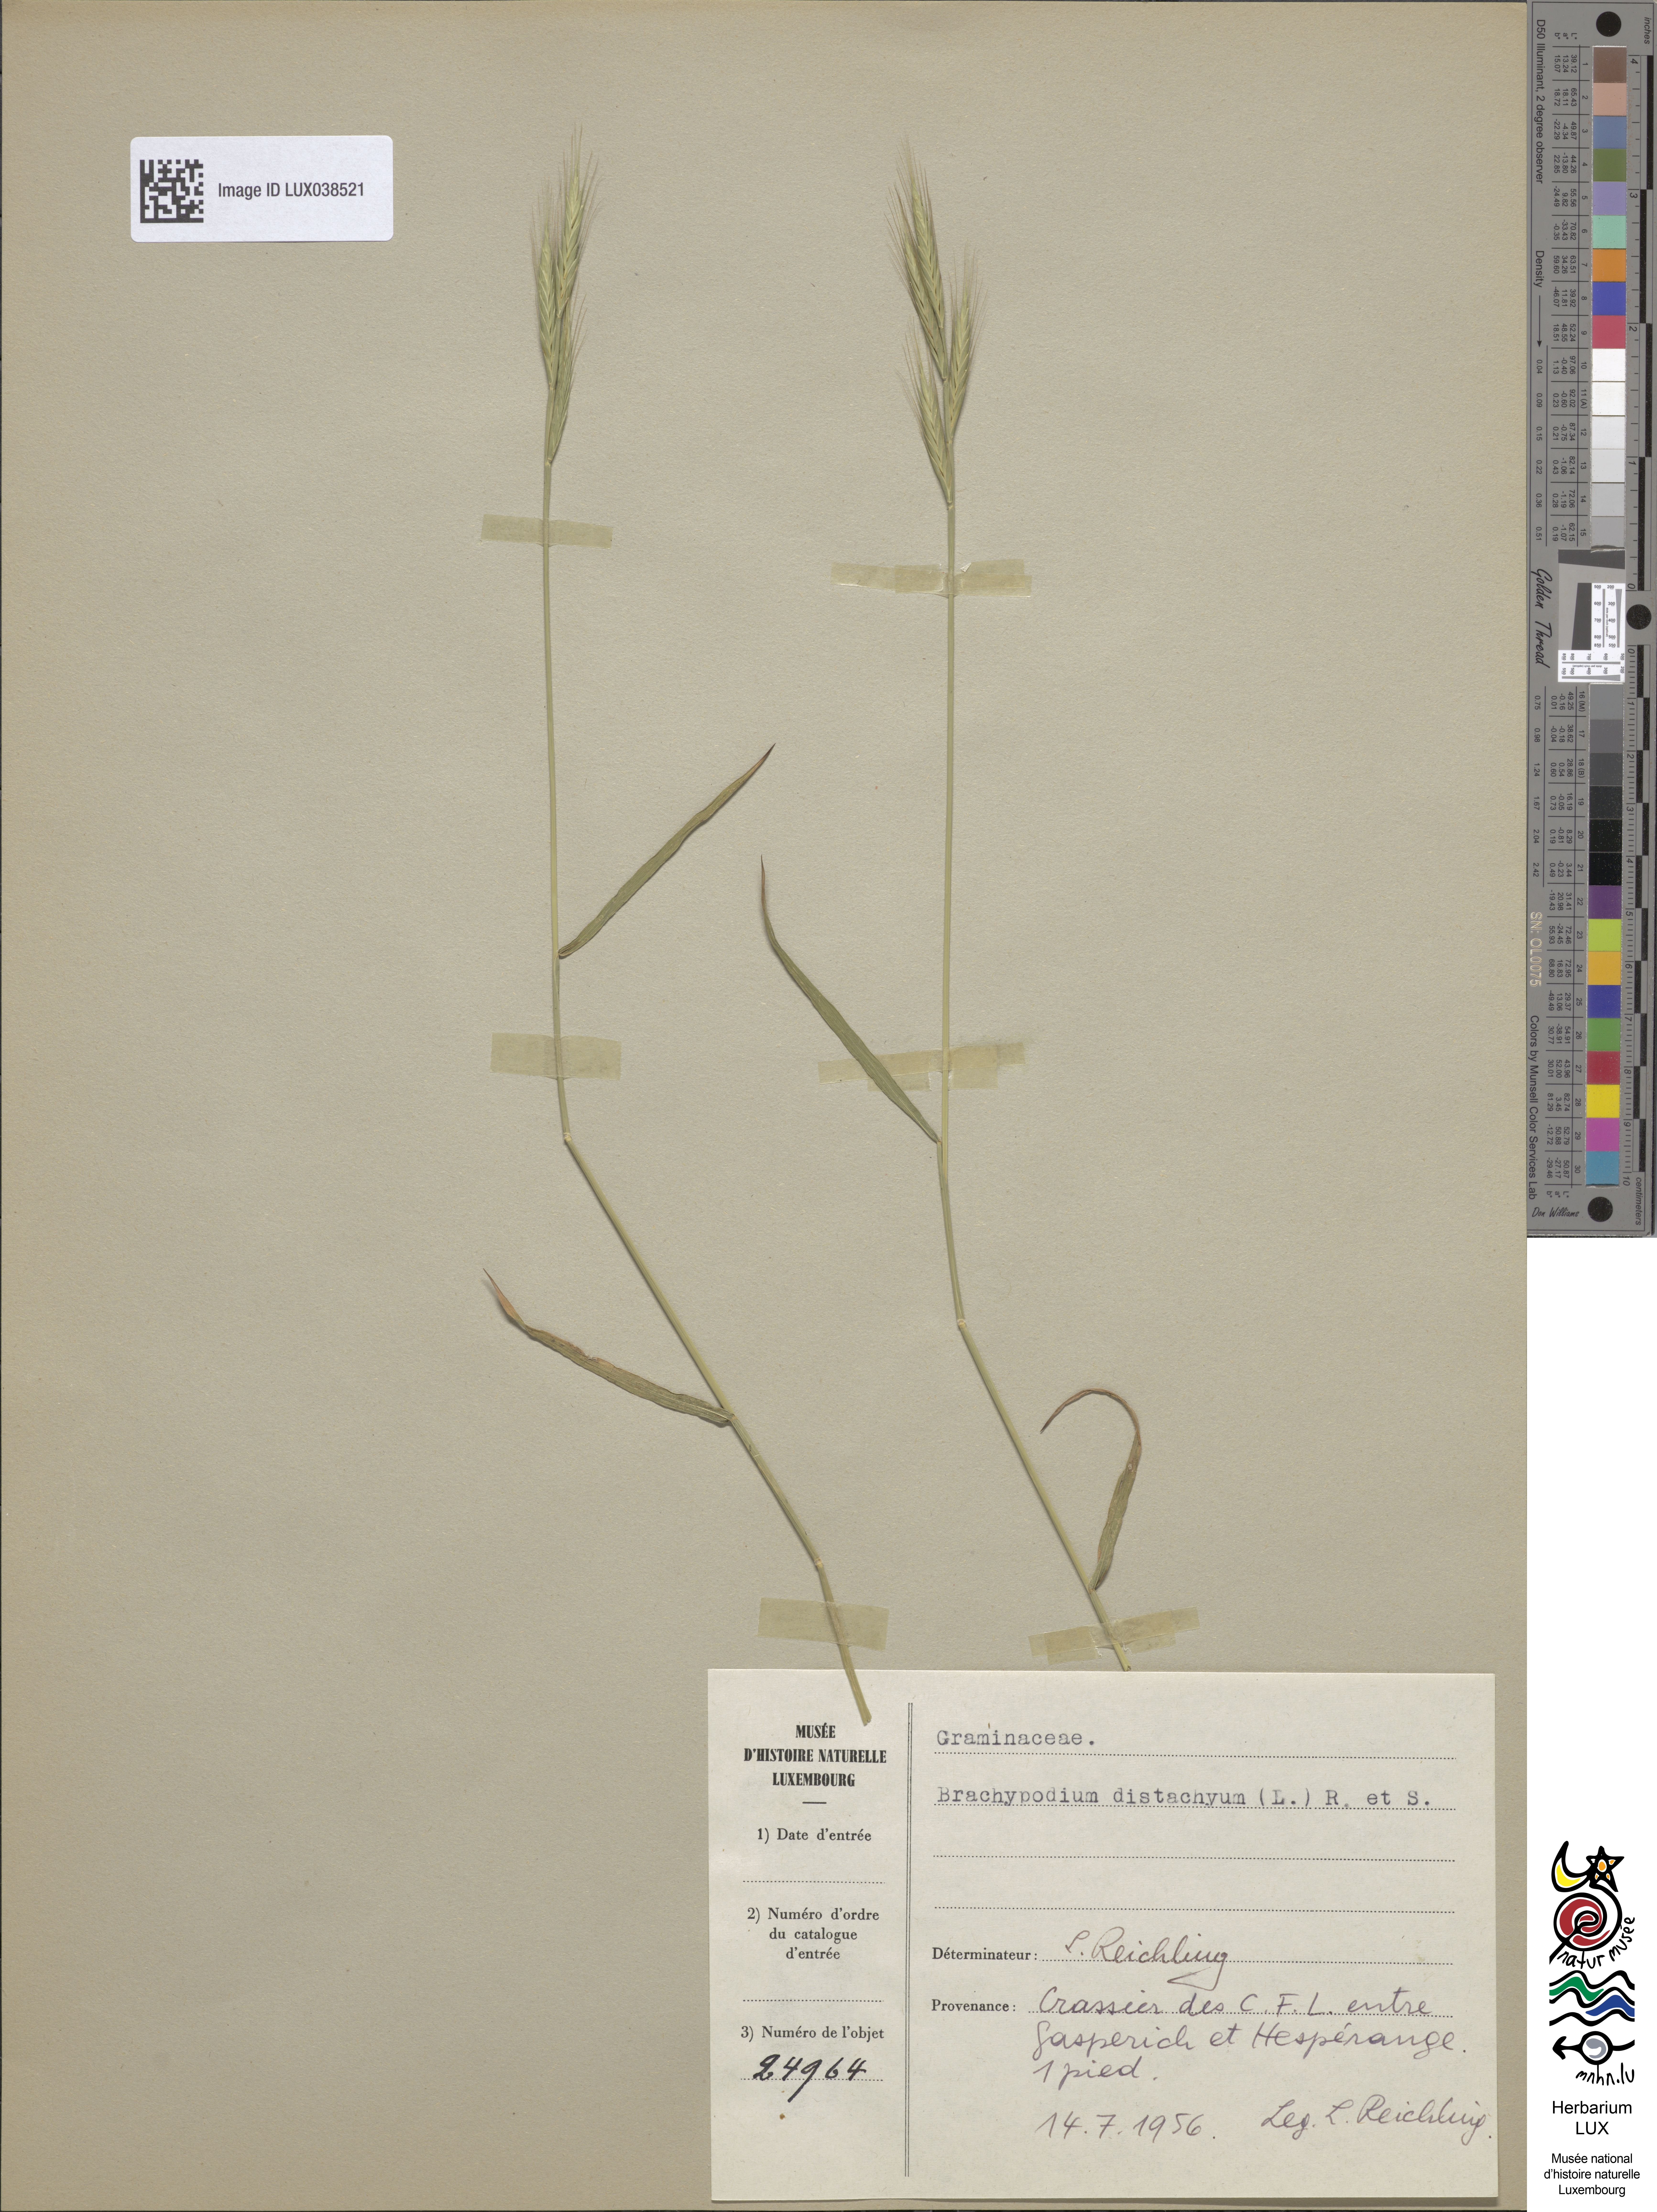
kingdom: Plantae
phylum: Tracheophyta
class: Liliopsida
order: Poales
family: Poaceae
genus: Brachypodium
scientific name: Brachypodium distachyon
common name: Stiff brome
